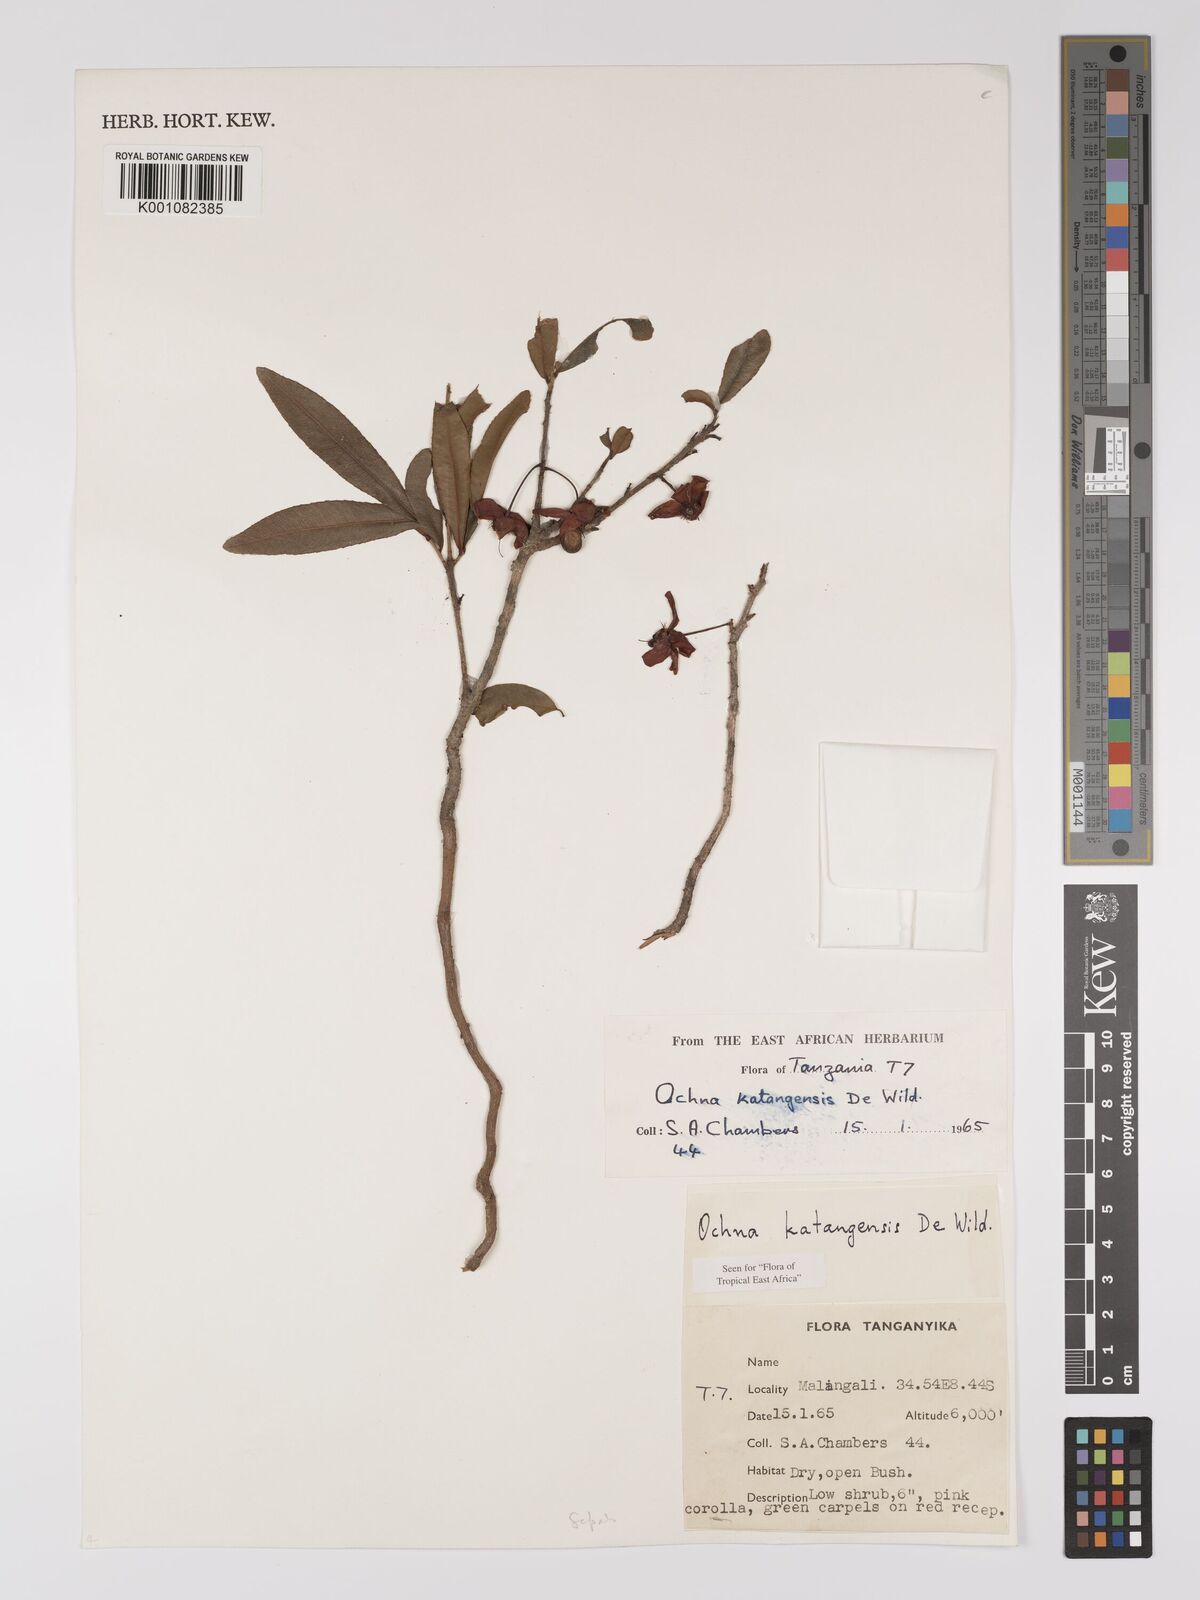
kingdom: Plantae
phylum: Tracheophyta
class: Magnoliopsida
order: Malpighiales
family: Ochnaceae
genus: Ochna
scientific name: Ochna katangensis
